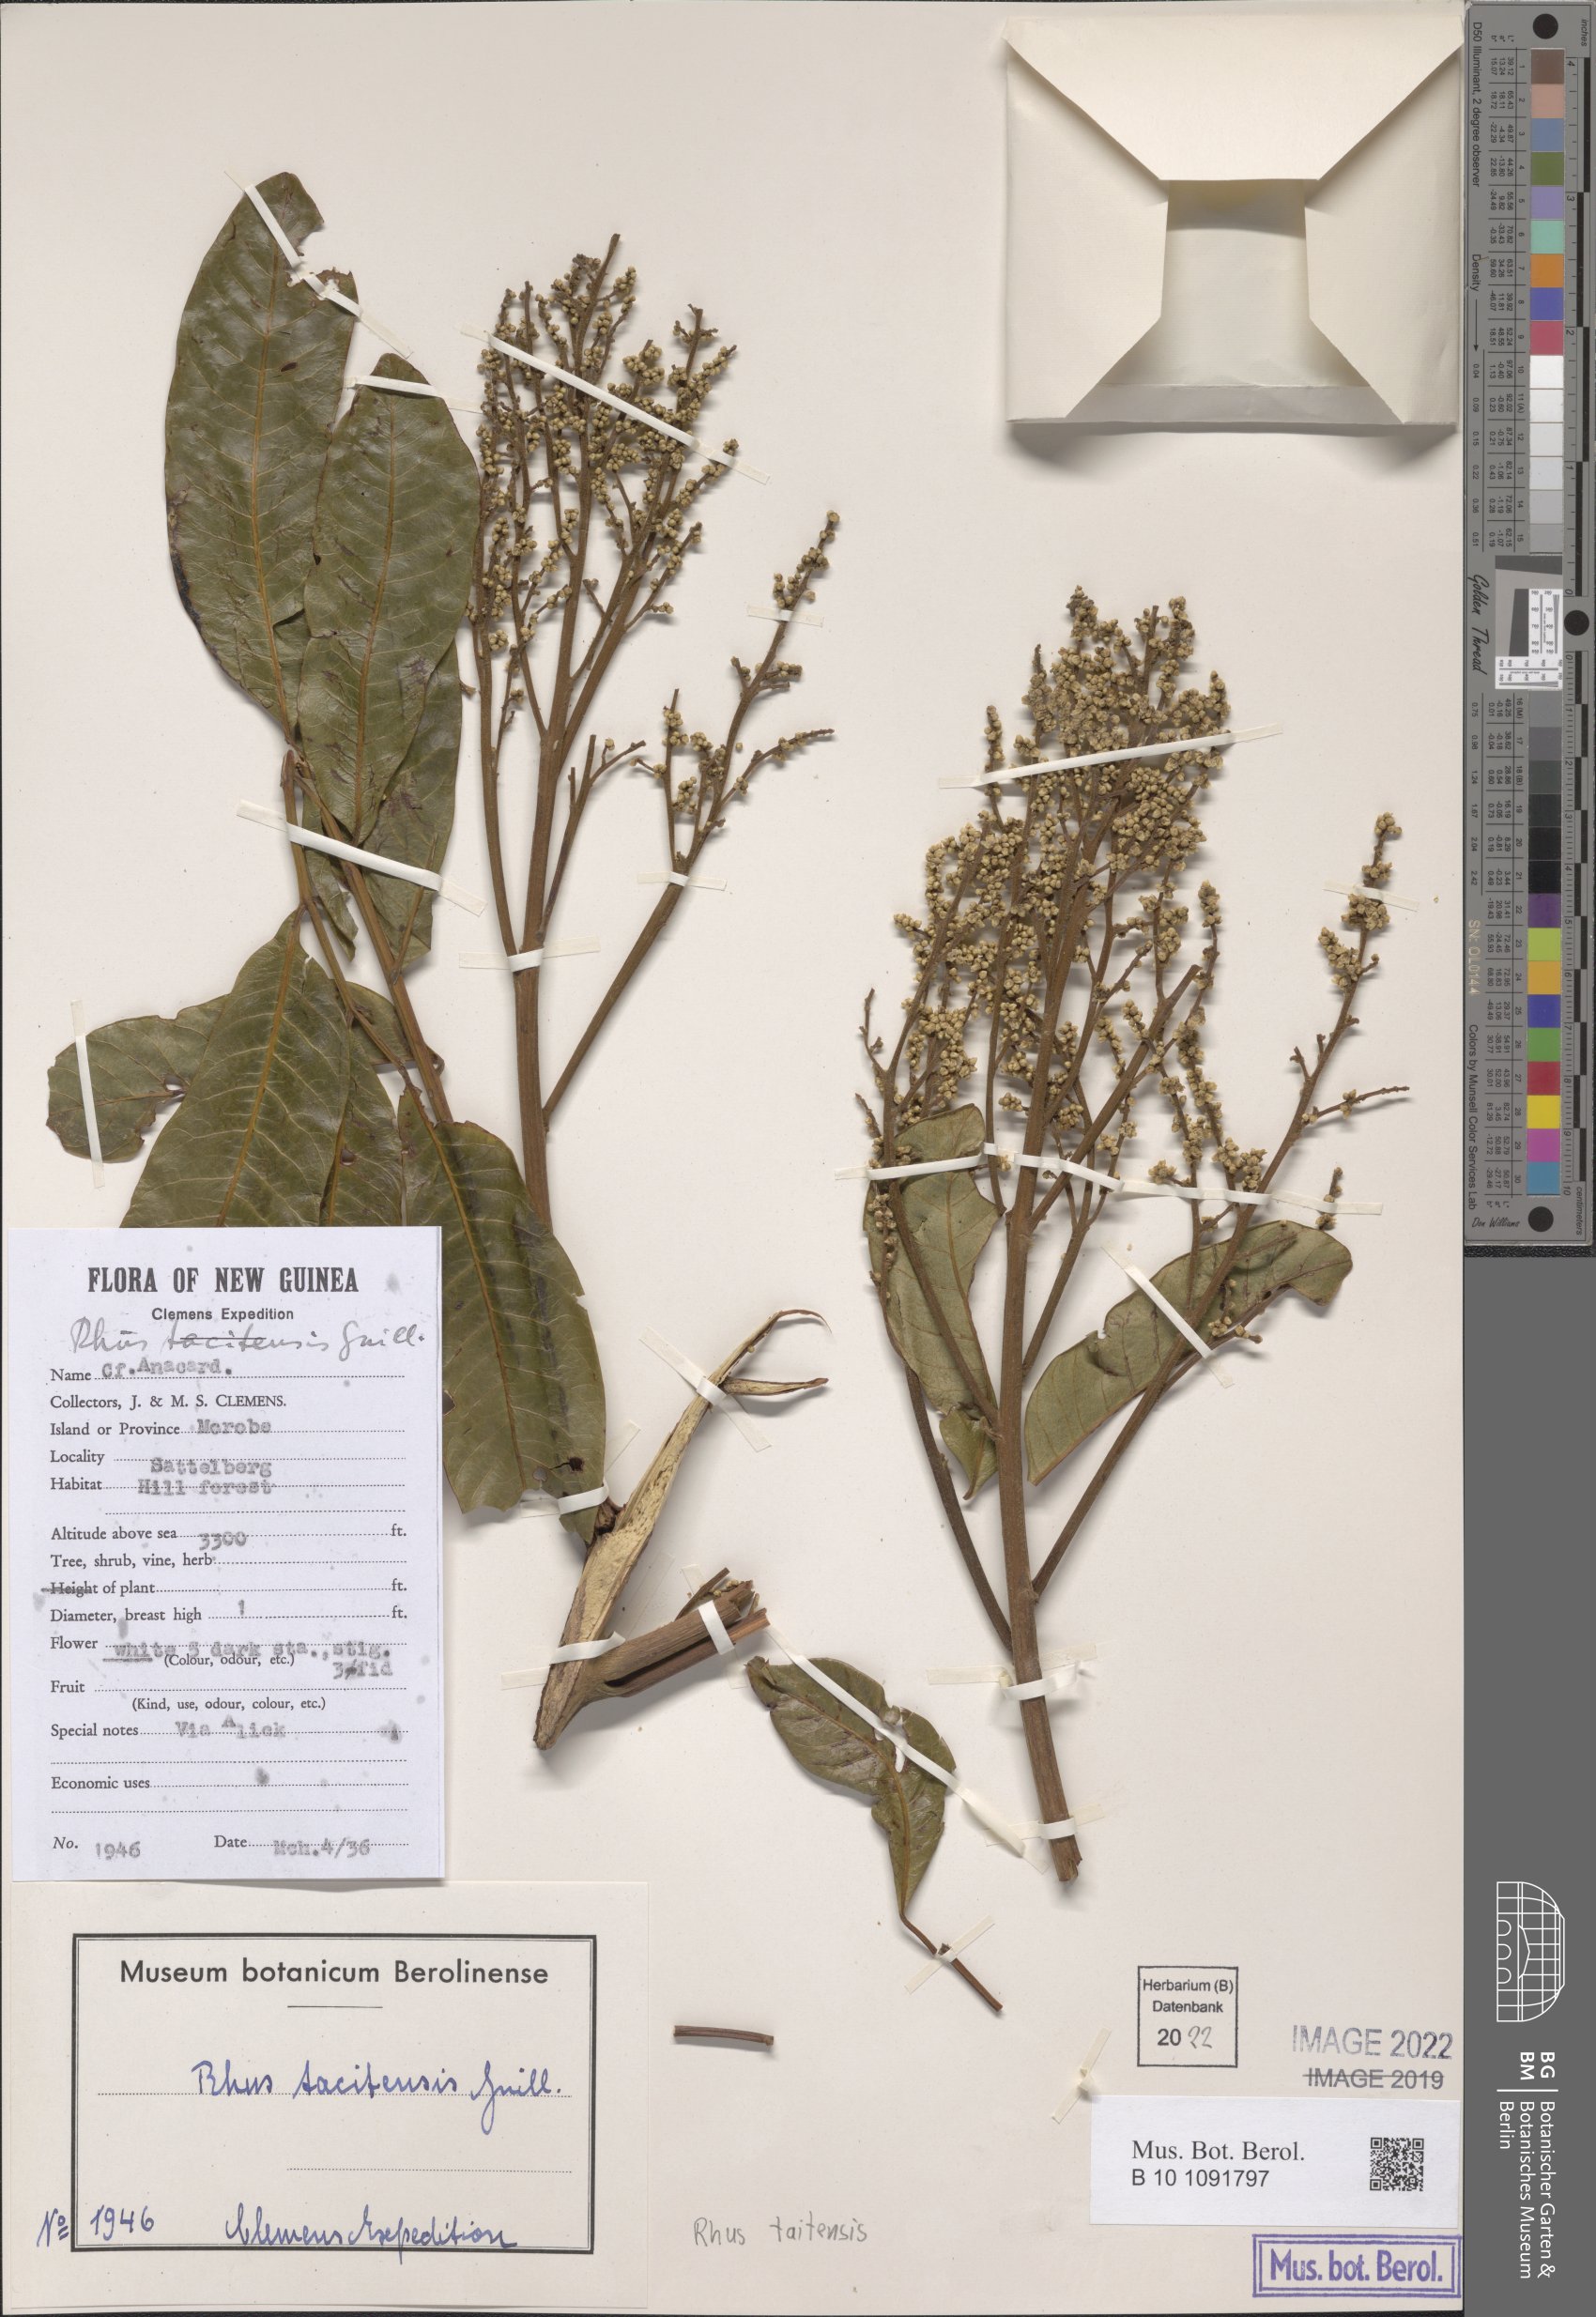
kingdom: Plantae
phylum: Tracheophyta
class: Magnoliopsida
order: Sapindales
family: Anacardiaceae
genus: Melanococca
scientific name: Melanococca tomentosa
